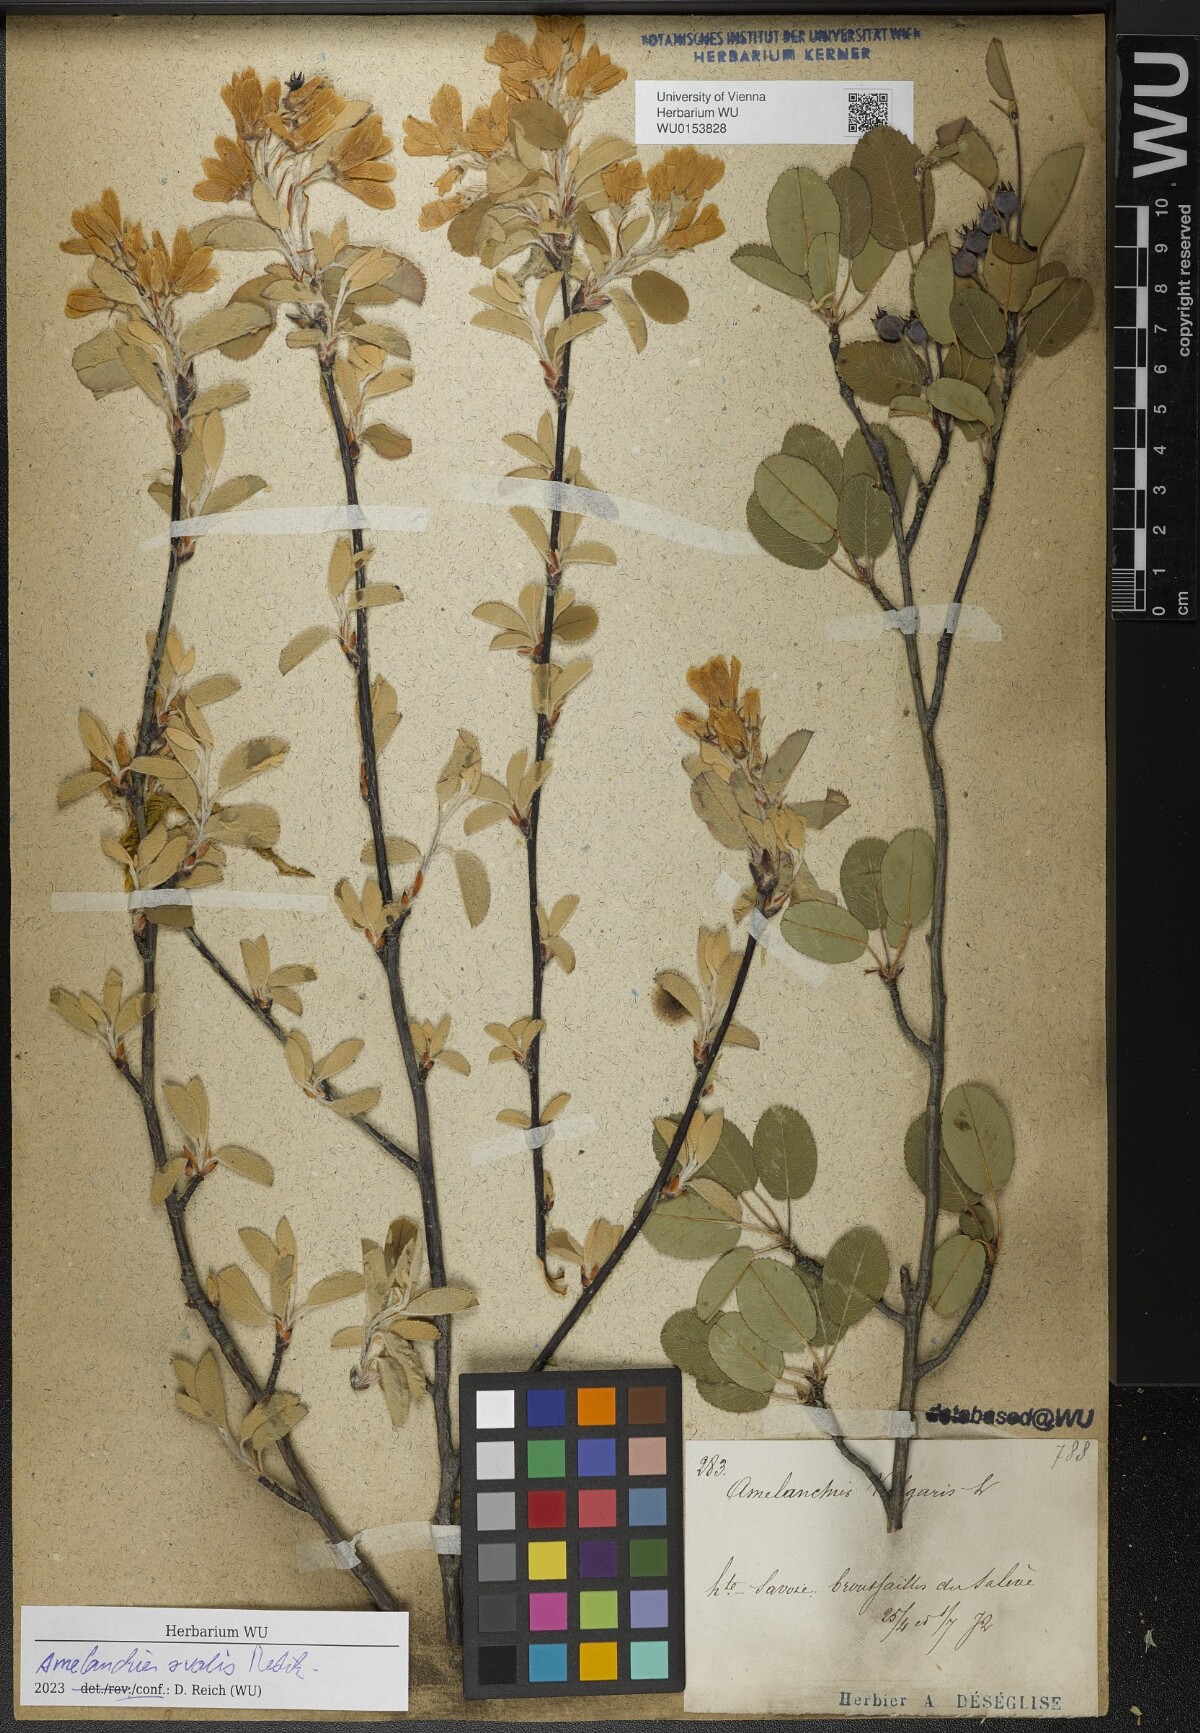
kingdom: Plantae
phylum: Tracheophyta
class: Magnoliopsida
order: Rosales
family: Rosaceae
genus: Amelanchier
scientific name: Amelanchier ovalis
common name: Serviceberry
